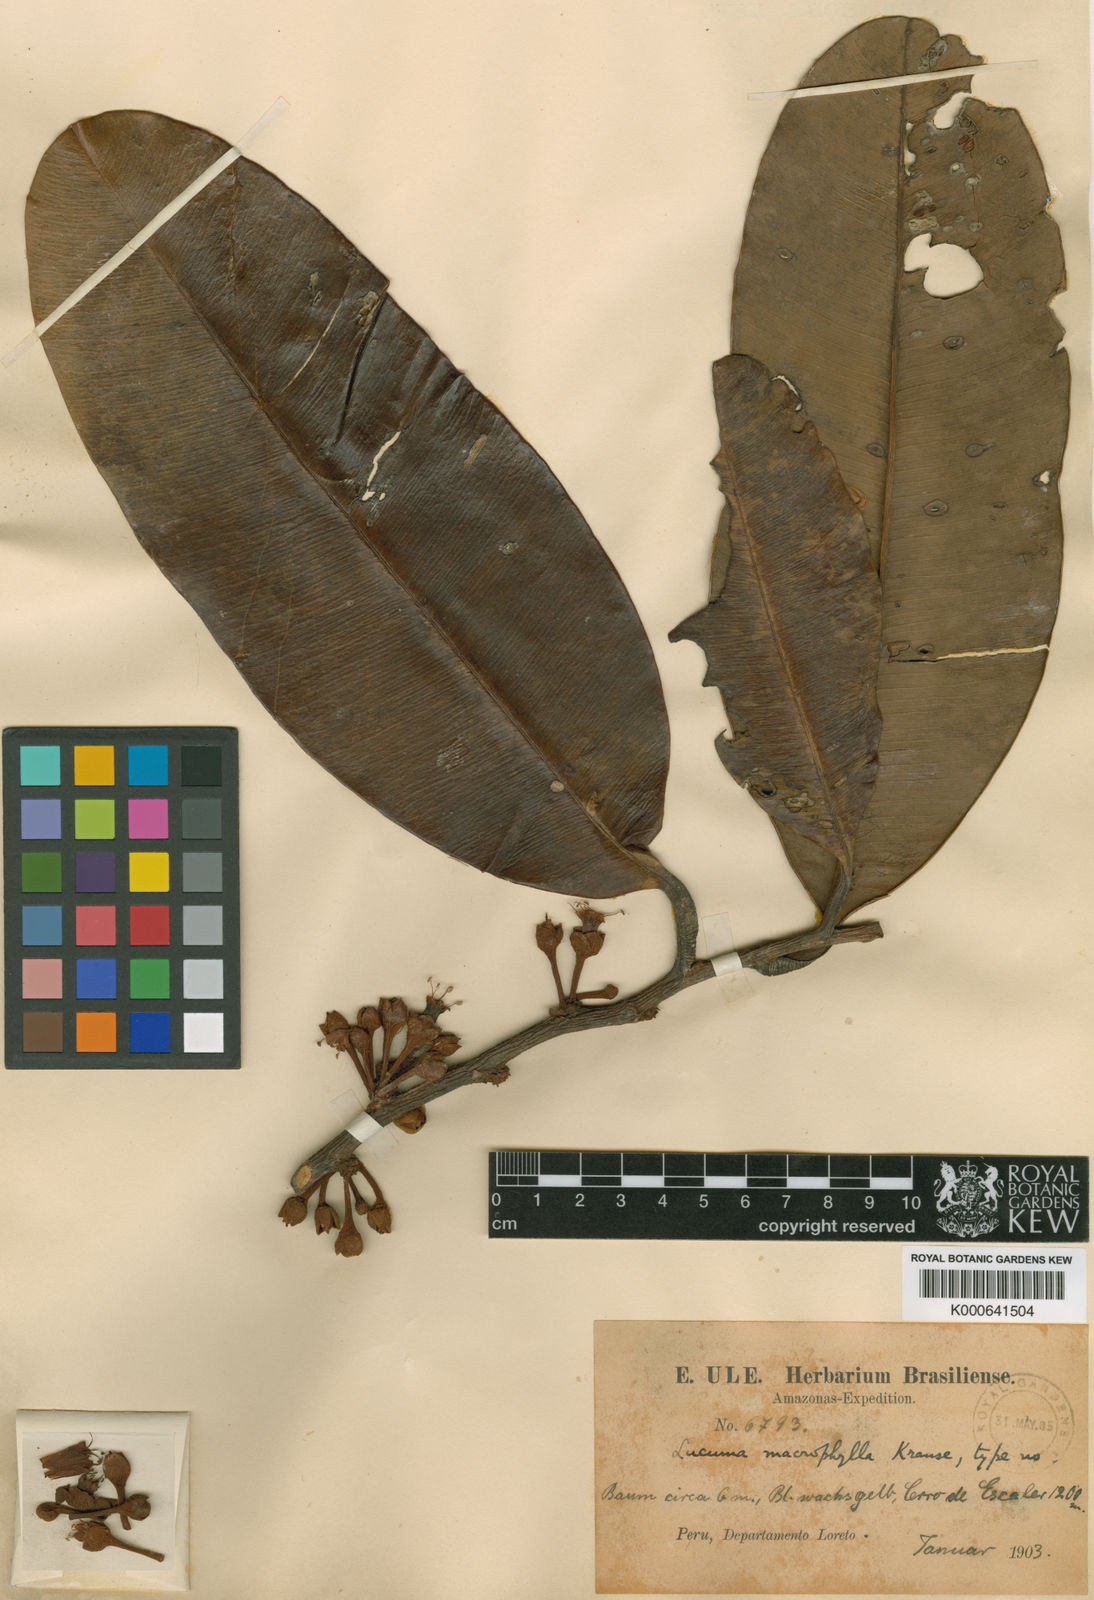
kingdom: Plantae
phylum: Tracheophyta
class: Magnoliopsida
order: Ericales
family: Sapotaceae
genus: Micropholis
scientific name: Micropholis macrophylla
